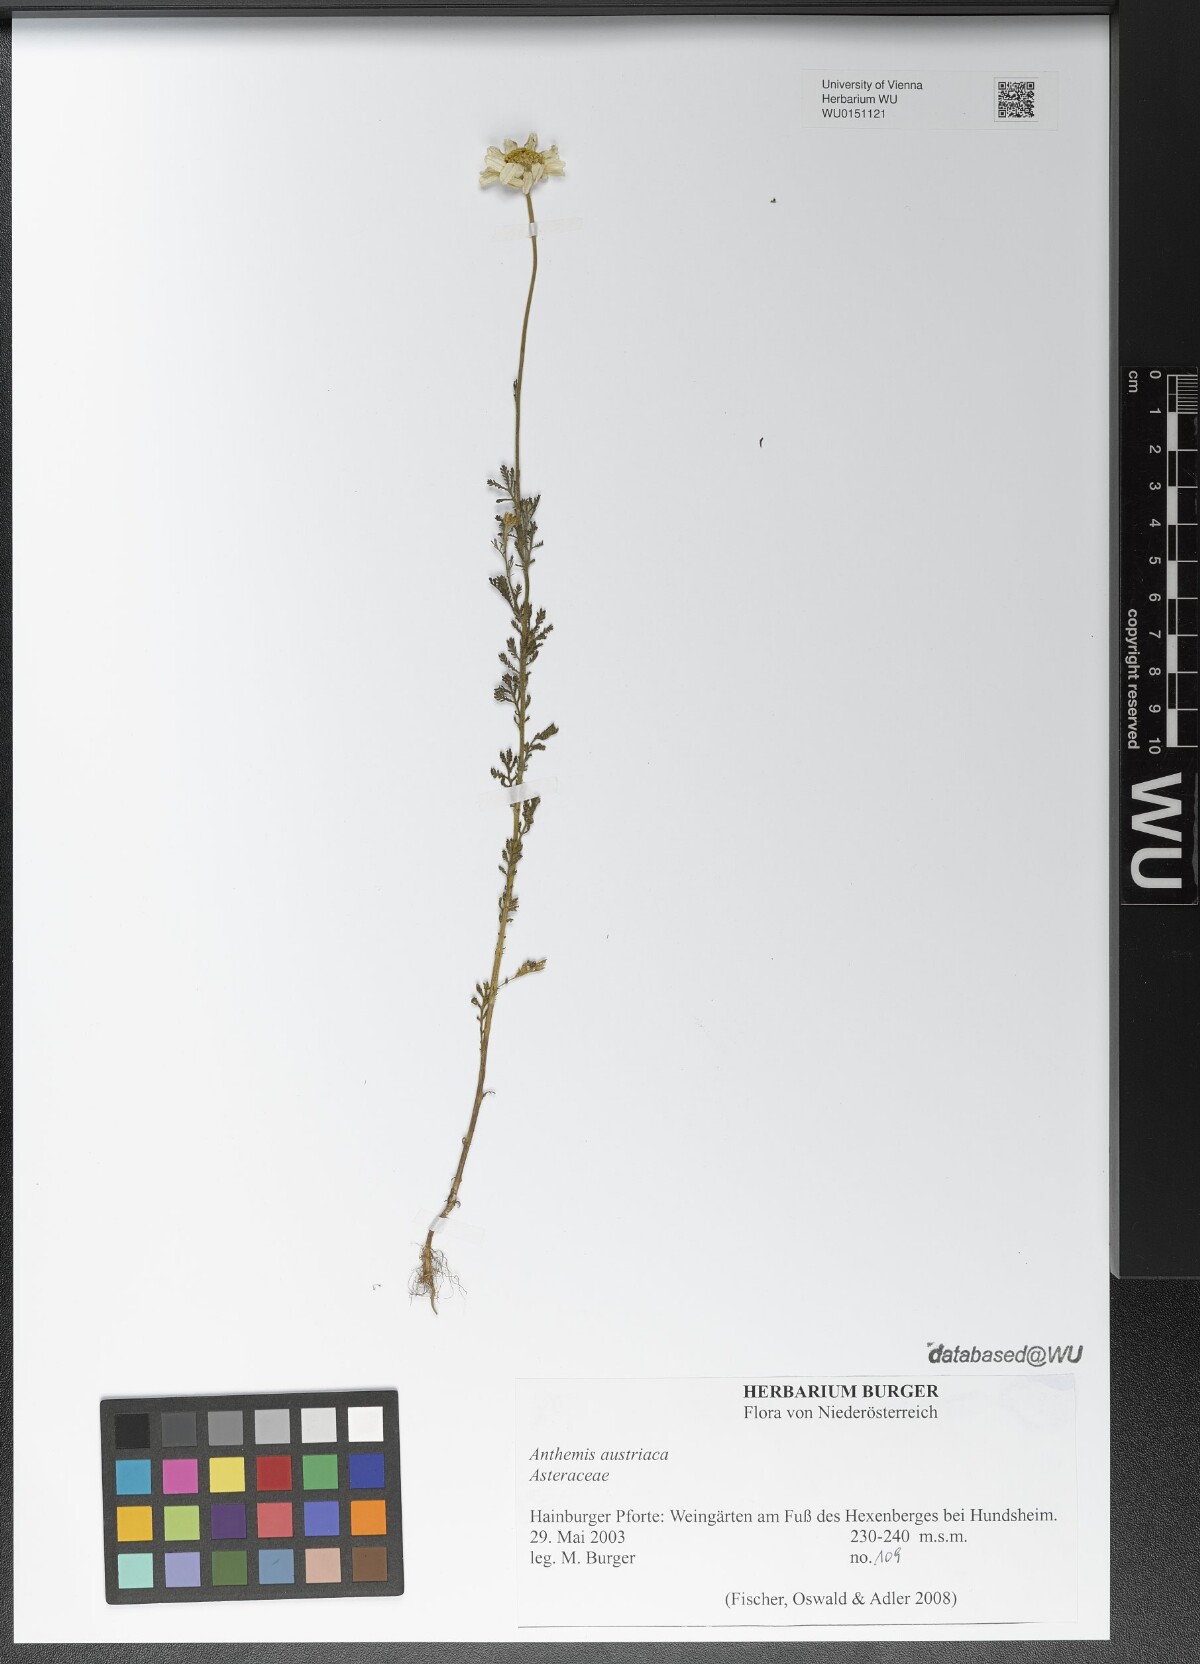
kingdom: Plantae
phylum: Tracheophyta
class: Magnoliopsida
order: Asterales
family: Asteraceae
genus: Cota
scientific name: Cota austriaca
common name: Austrian chamomile
